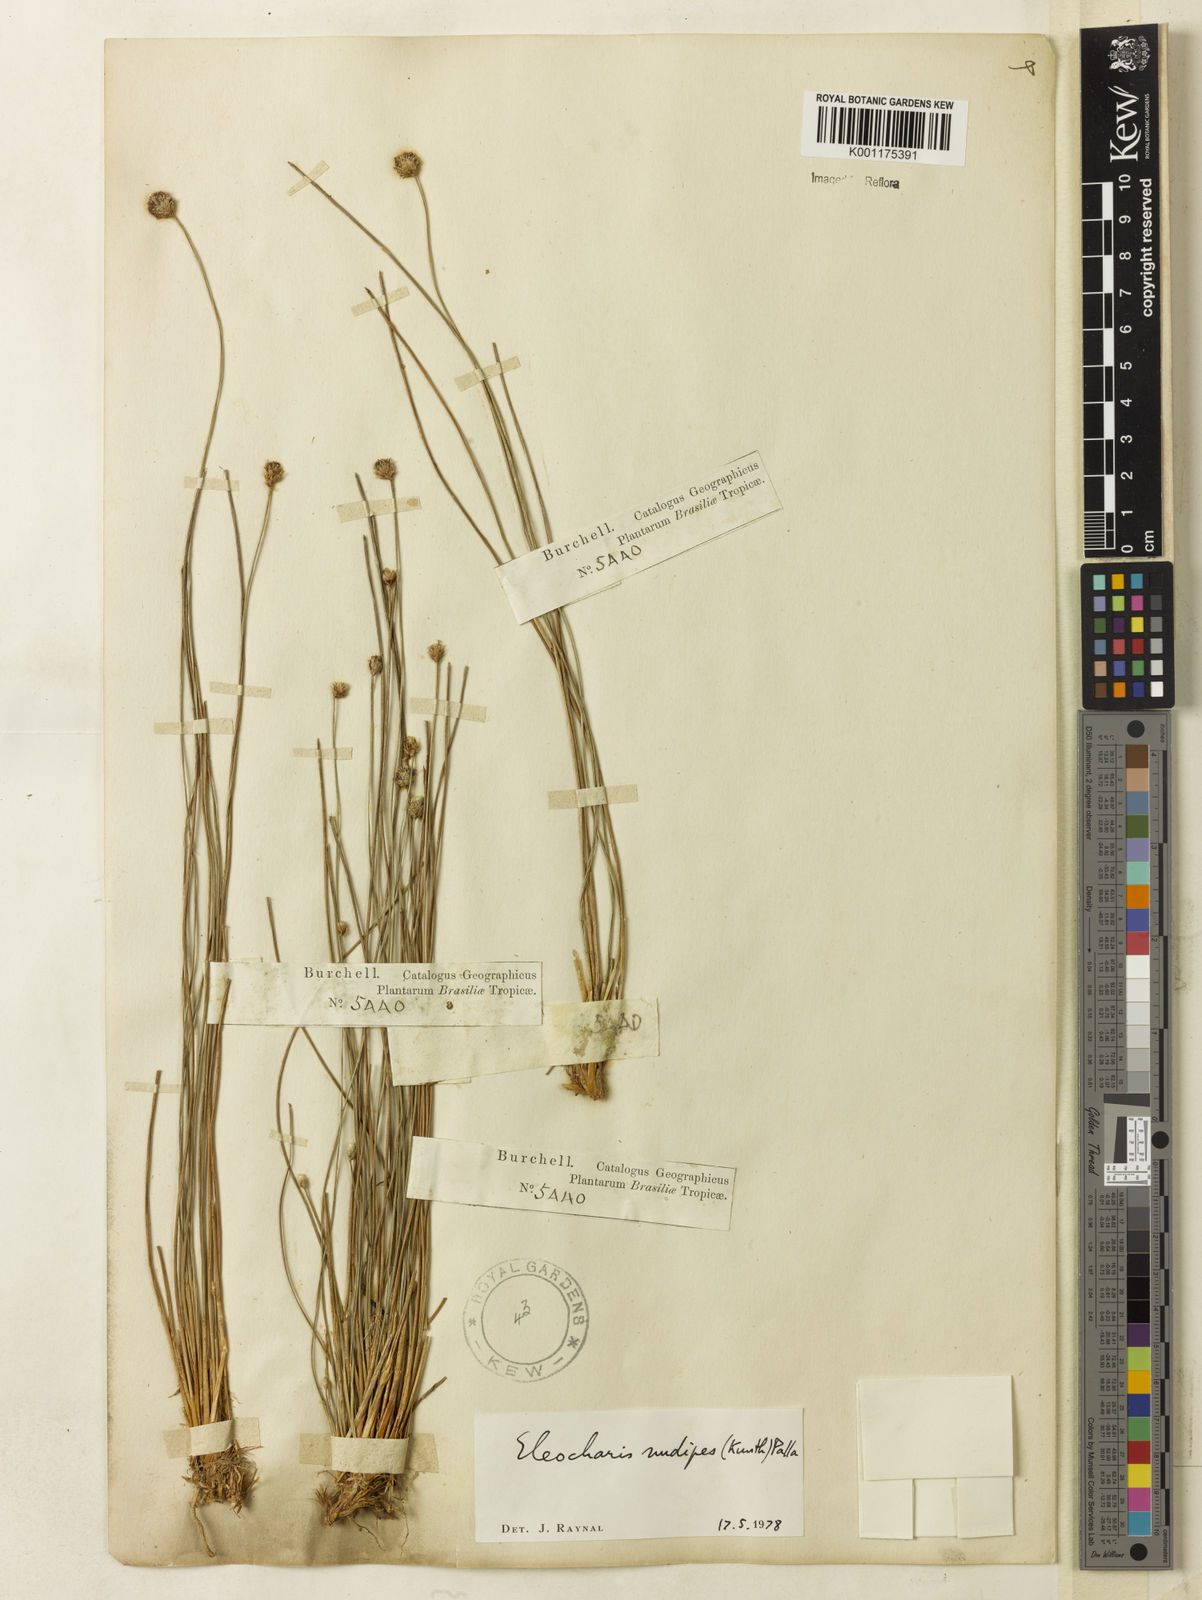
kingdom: Plantae
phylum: Tracheophyta
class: Liliopsida
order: Poales
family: Cyperaceae
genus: Eleocharis
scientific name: Eleocharis nudipes
